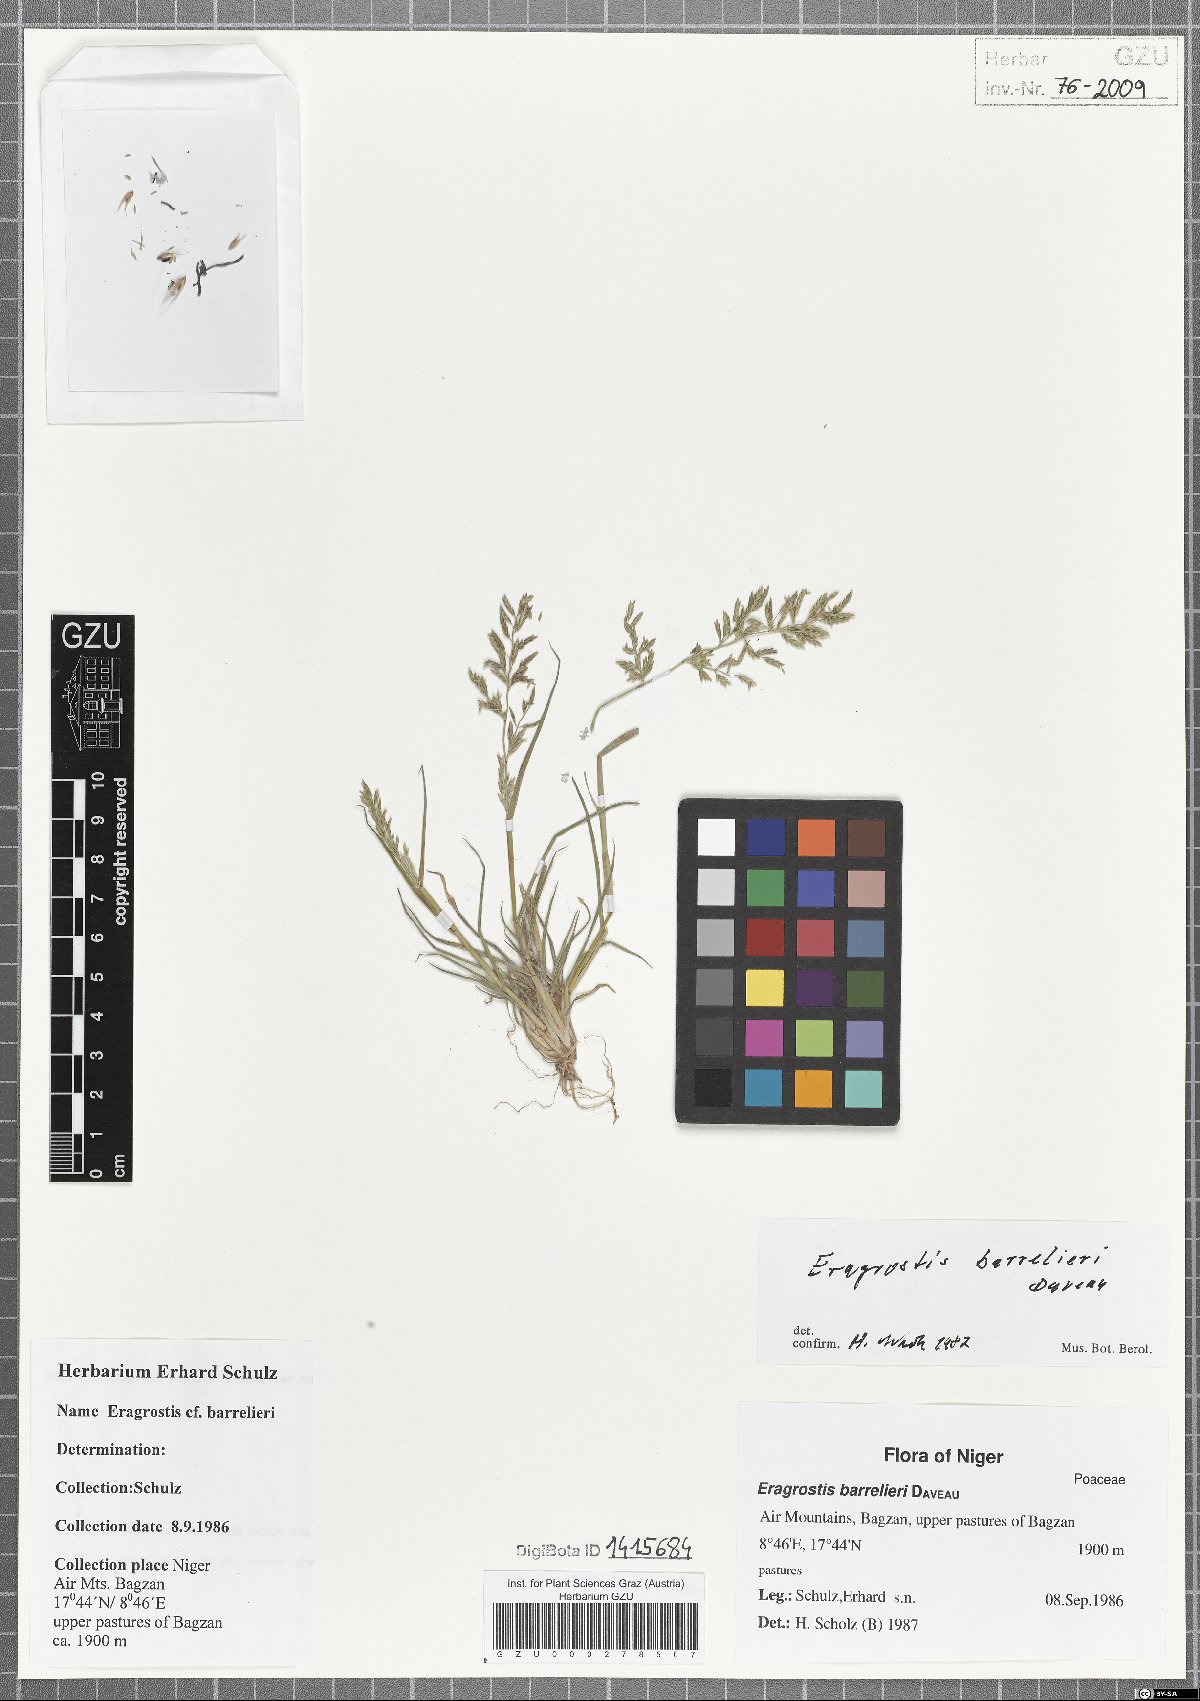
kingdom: Plantae
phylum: Tracheophyta
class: Liliopsida
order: Poales
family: Poaceae
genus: Eragrostis
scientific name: Eragrostis barrelieri
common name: Mediterranean lovegrass
